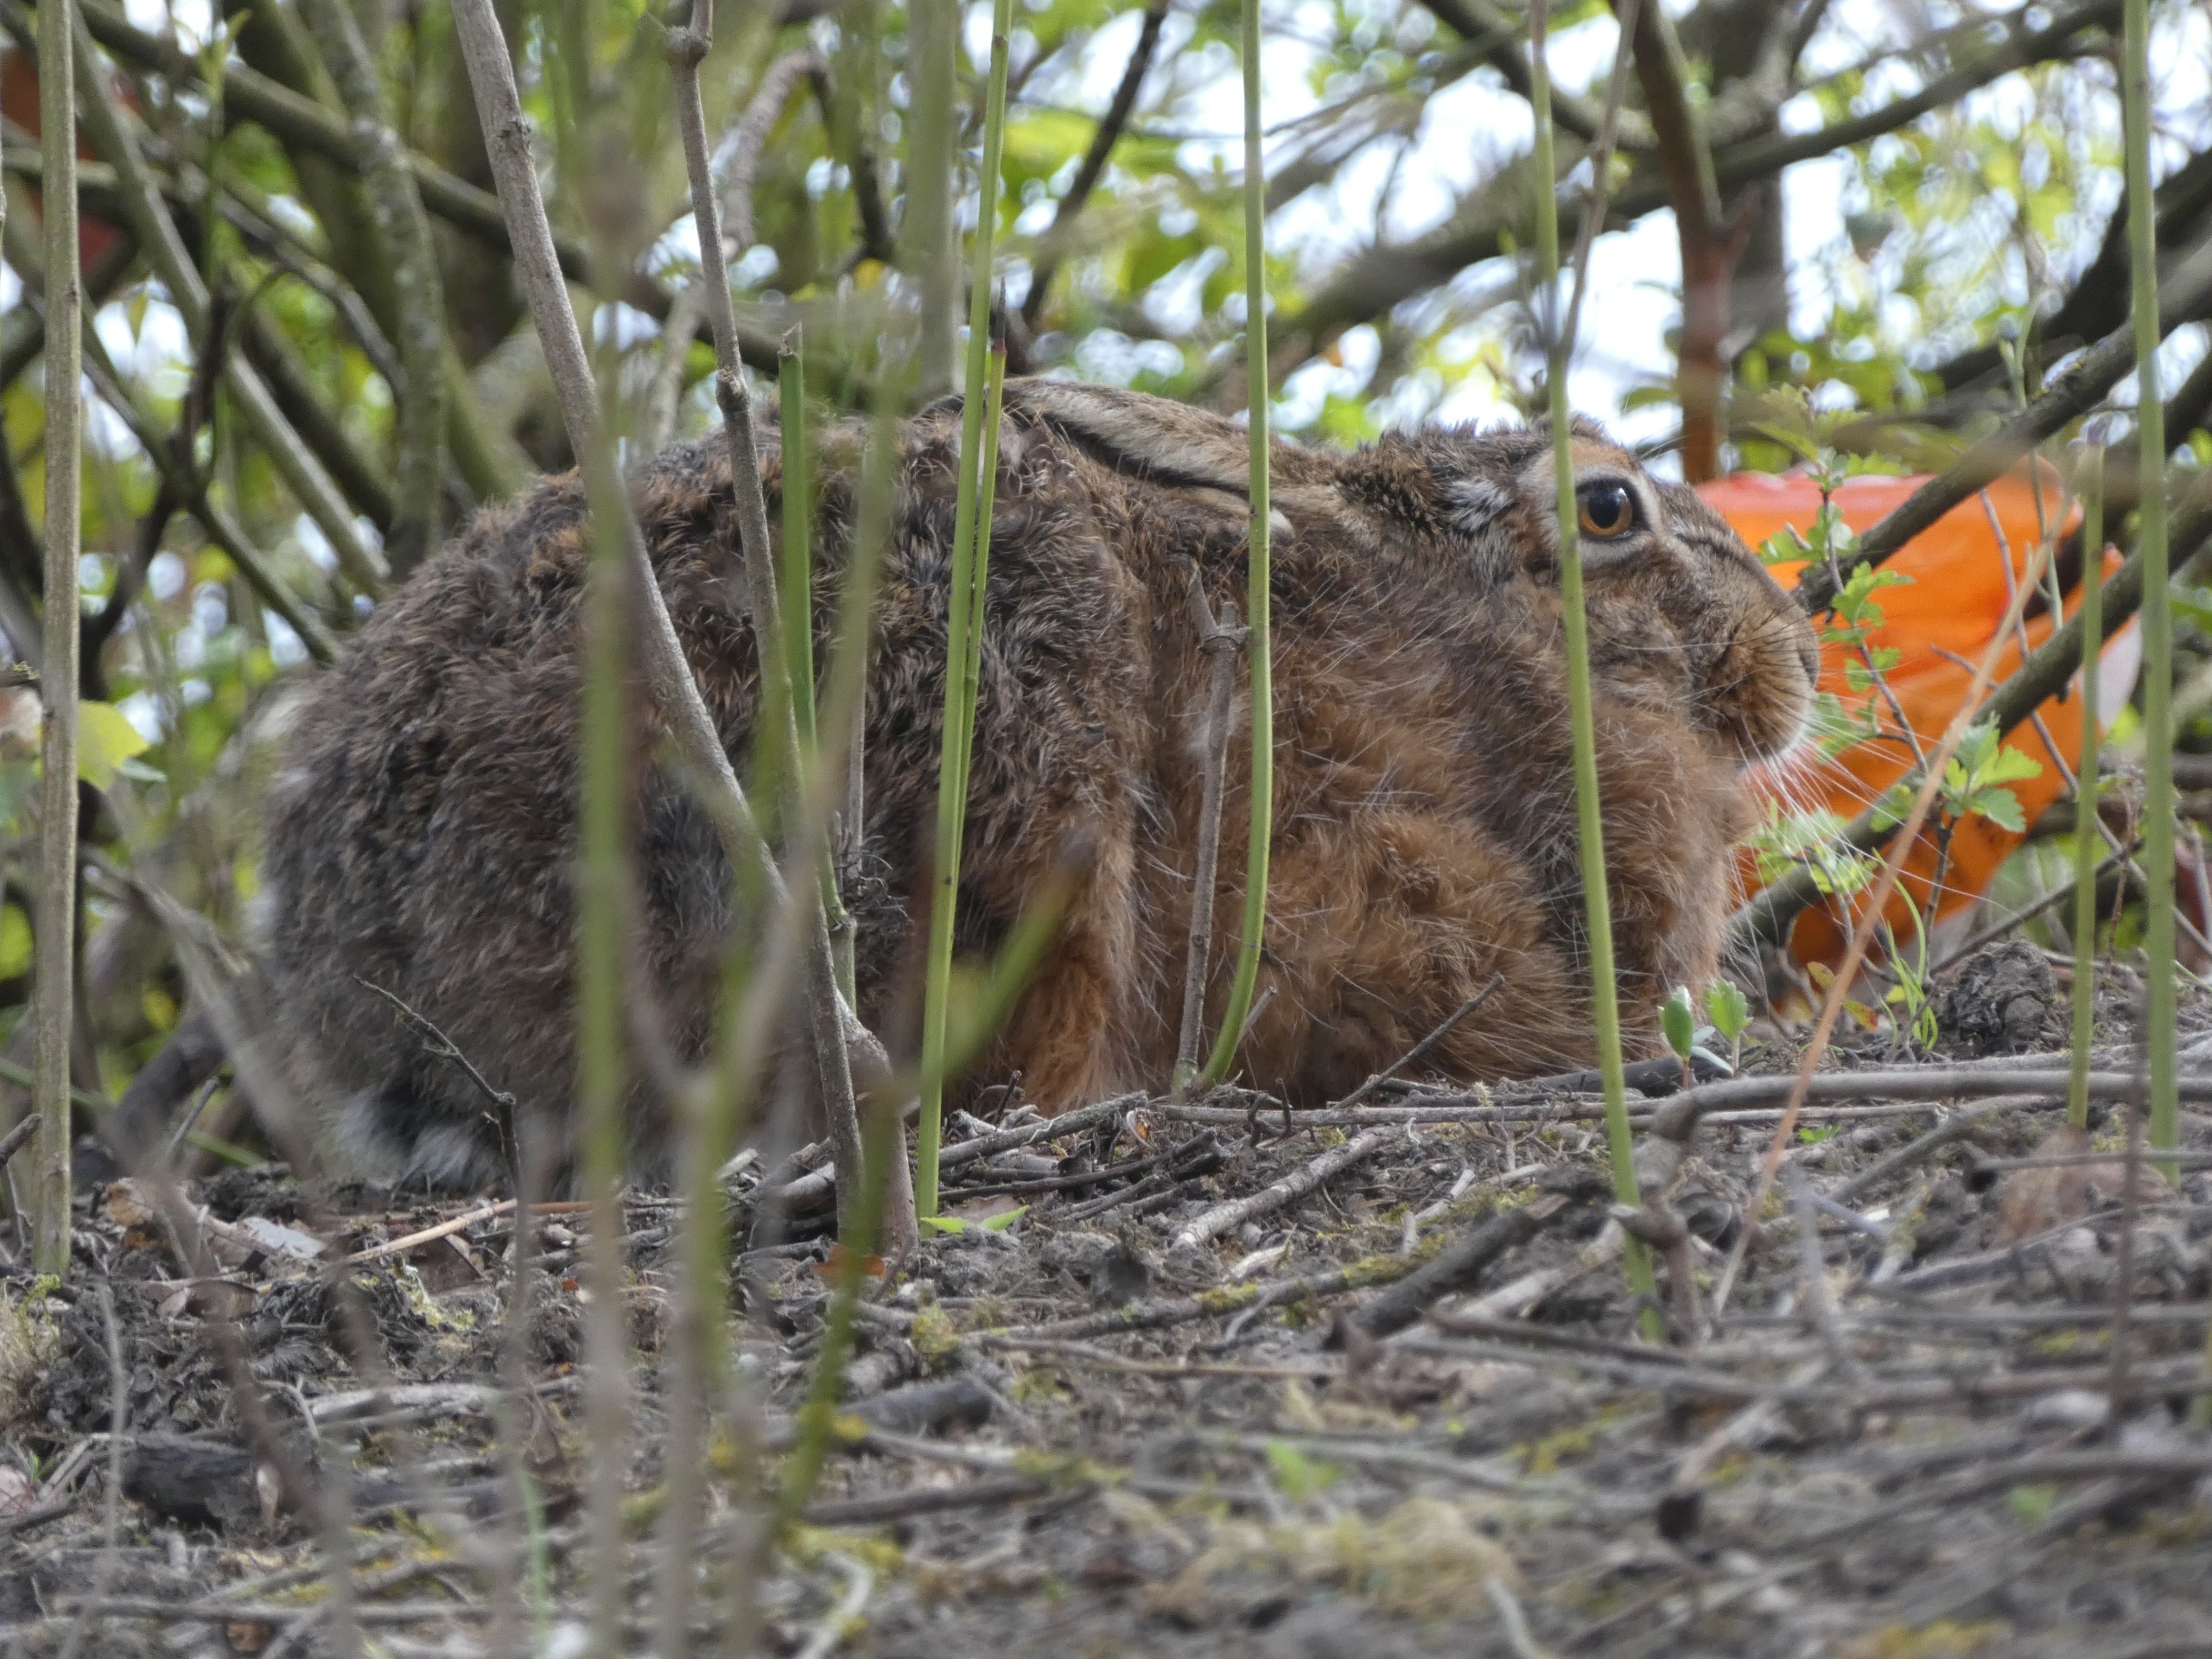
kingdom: Animalia
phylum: Chordata
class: Mammalia
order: Lagomorpha
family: Leporidae
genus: Lepus
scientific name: Lepus europaeus
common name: Hare
